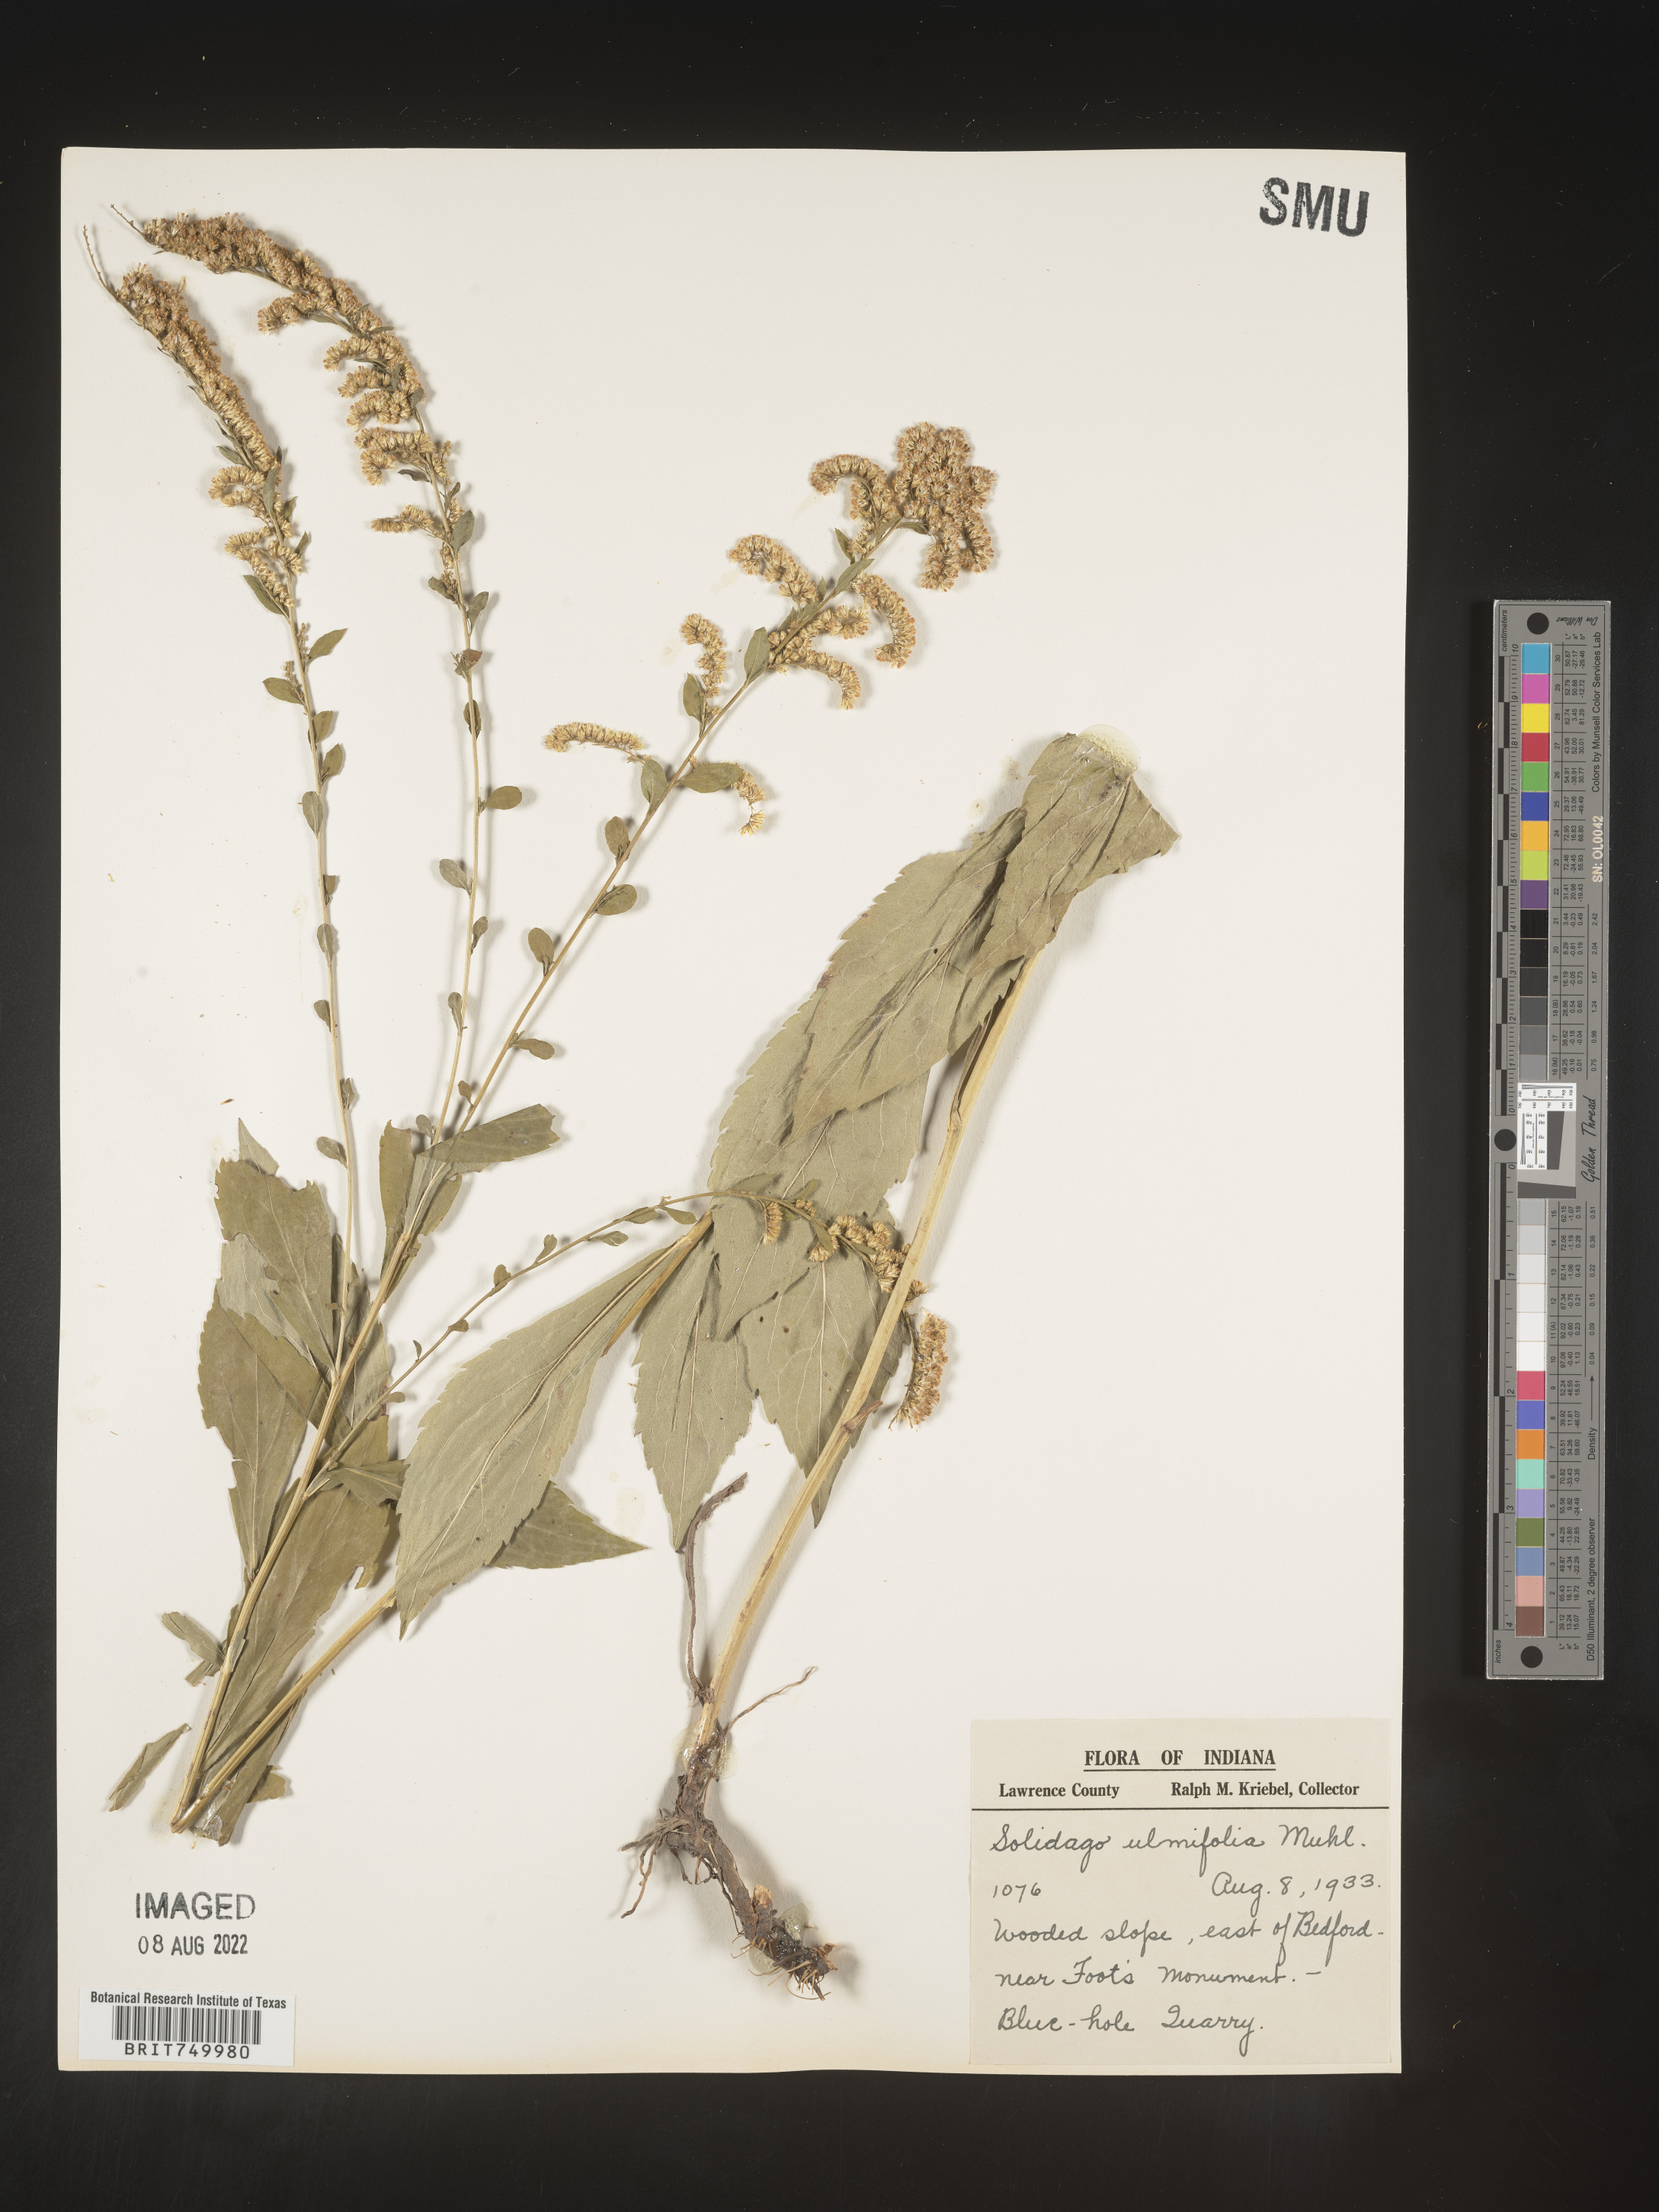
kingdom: Plantae
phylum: Tracheophyta
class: Magnoliopsida
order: Asterales
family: Asteraceae
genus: Solidago
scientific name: Solidago ulmifolia
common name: Elm-leaf goldenrod
